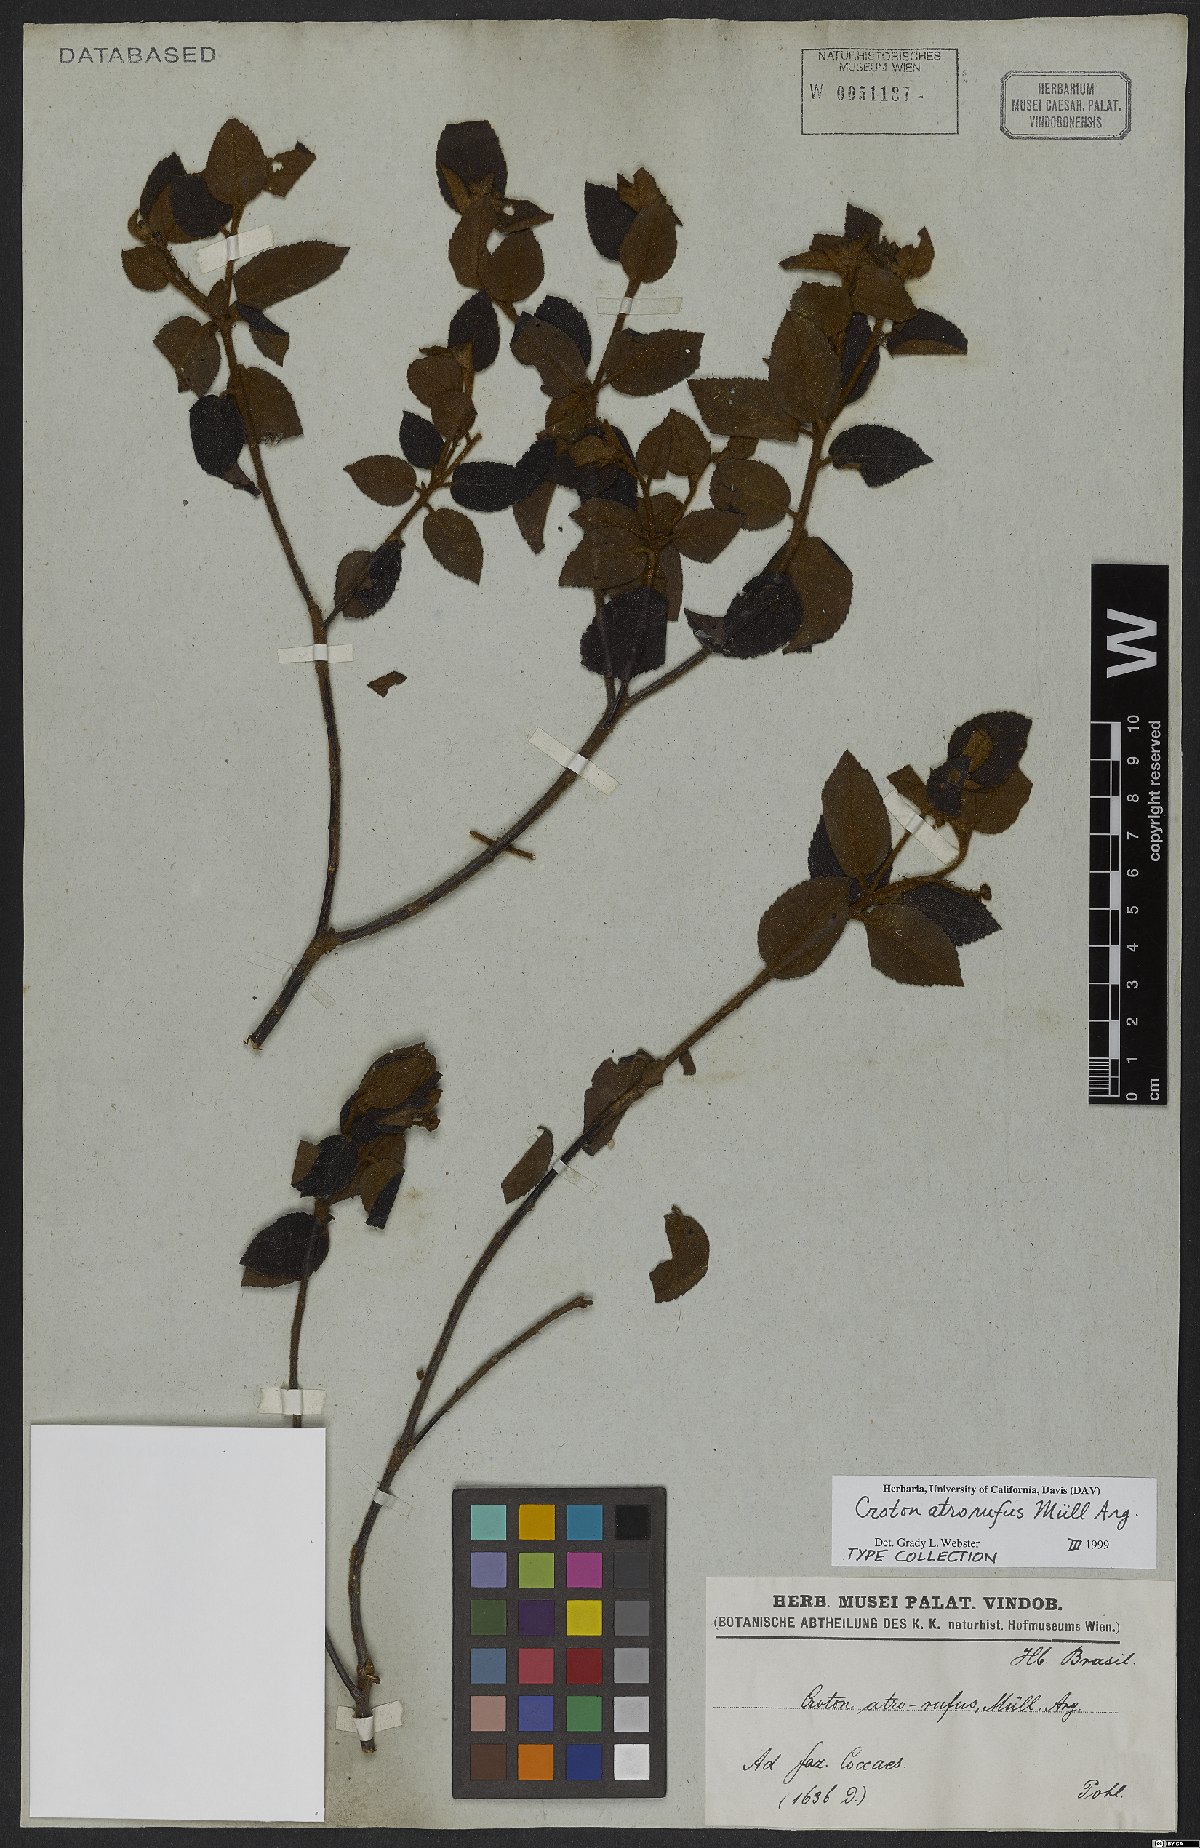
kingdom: Plantae
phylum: Tracheophyta
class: Magnoliopsida
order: Malpighiales
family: Euphorbiaceae
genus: Croton
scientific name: Croton atrorufus
